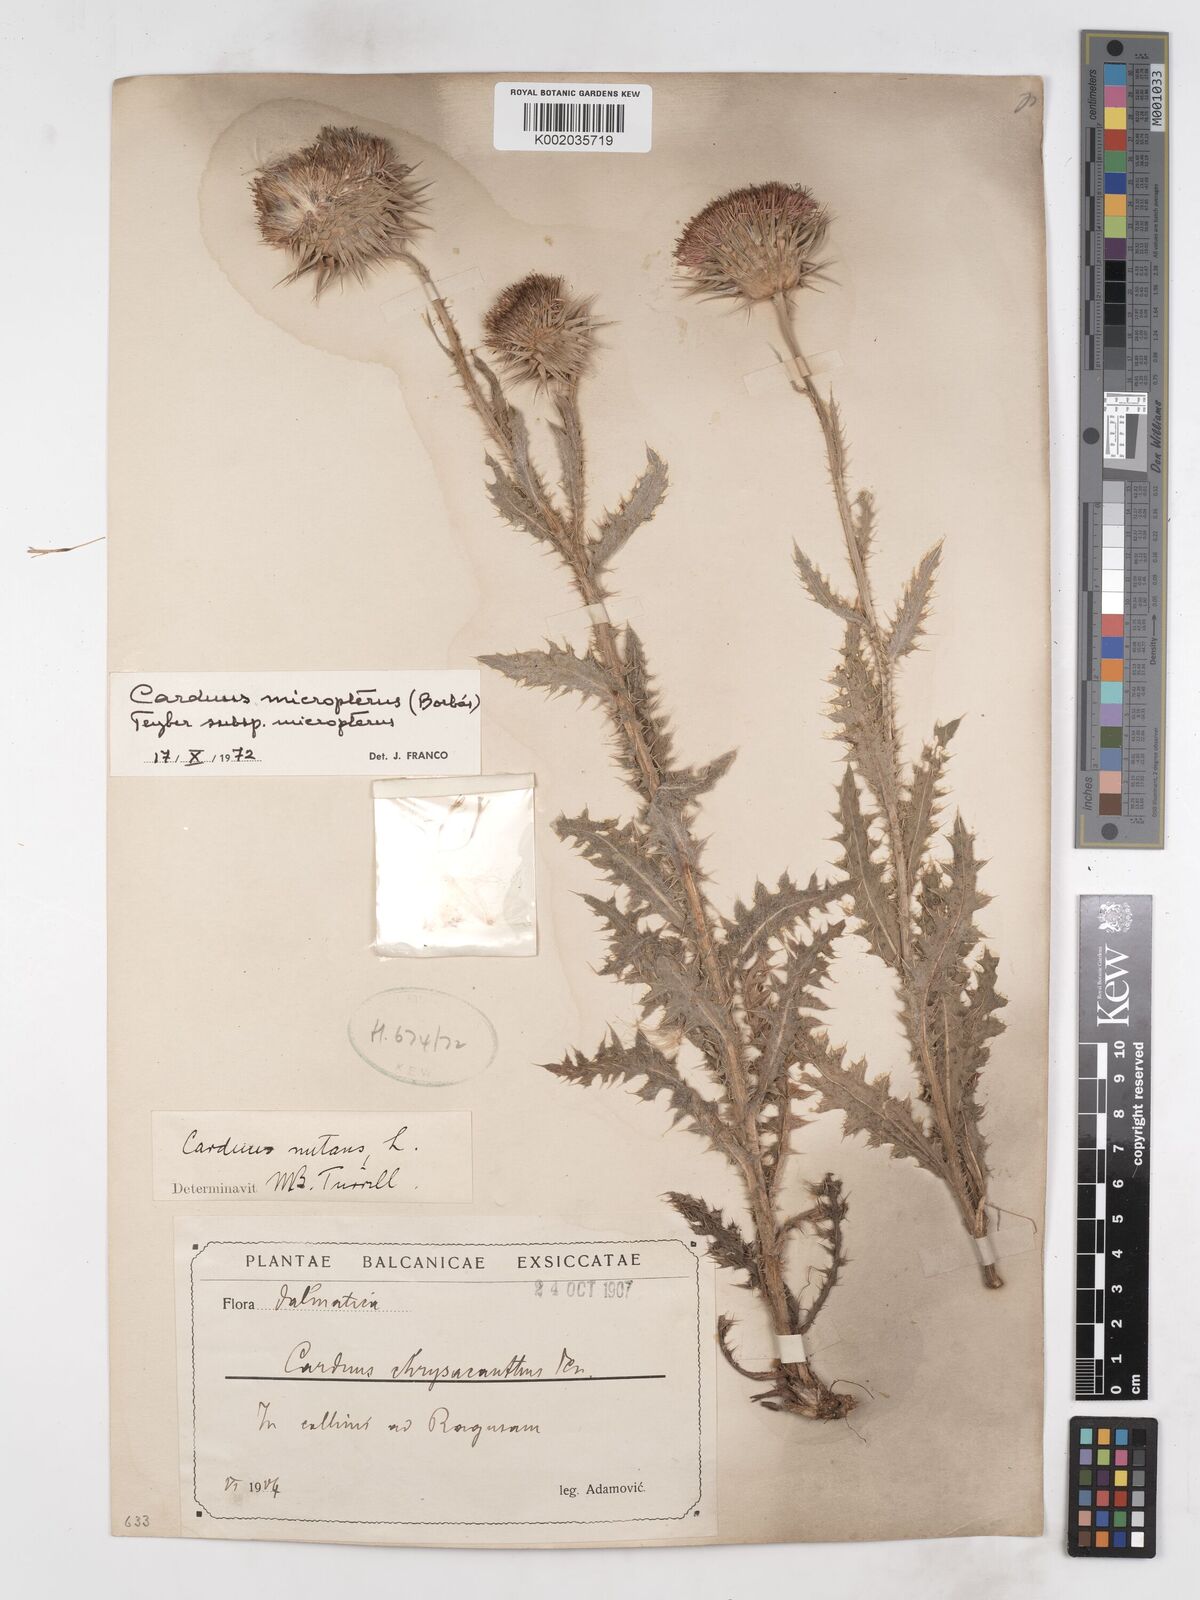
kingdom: Plantae
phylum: Tracheophyta
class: Magnoliopsida
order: Asterales
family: Asteraceae
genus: Carduus
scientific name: Carduus nutans
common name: Musk thistle
